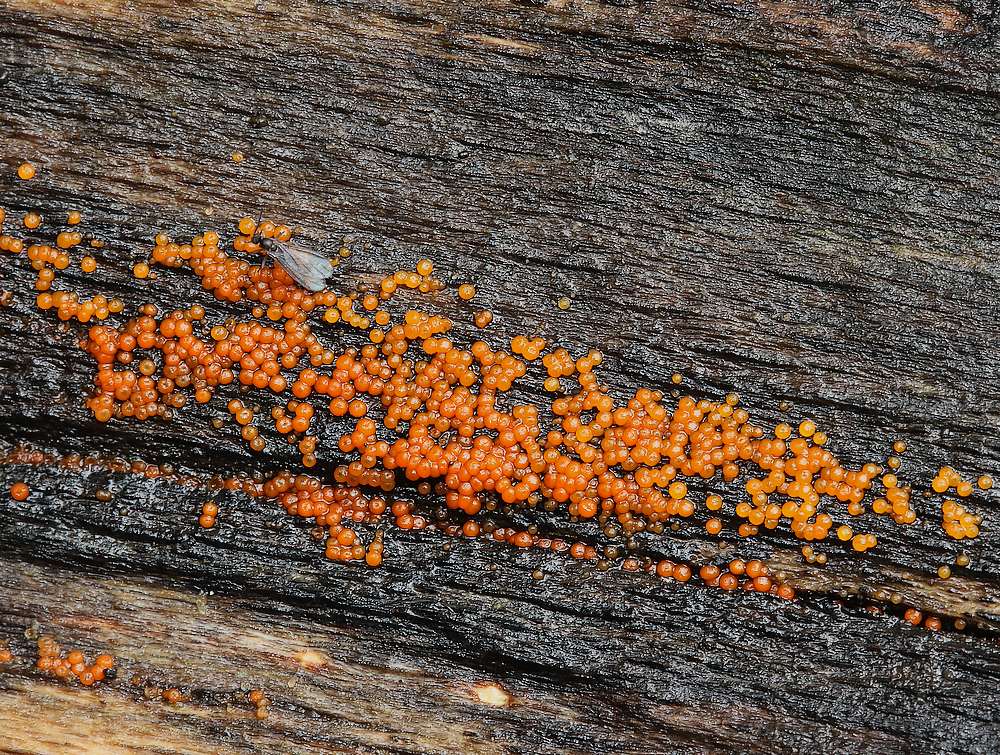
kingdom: Fungi
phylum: Ascomycota
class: Sordariomycetes
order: Hypocreales
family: Nectriaceae
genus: Hydropisphaera
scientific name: Hydropisphaera peziza
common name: skålformet gyldenkerne
